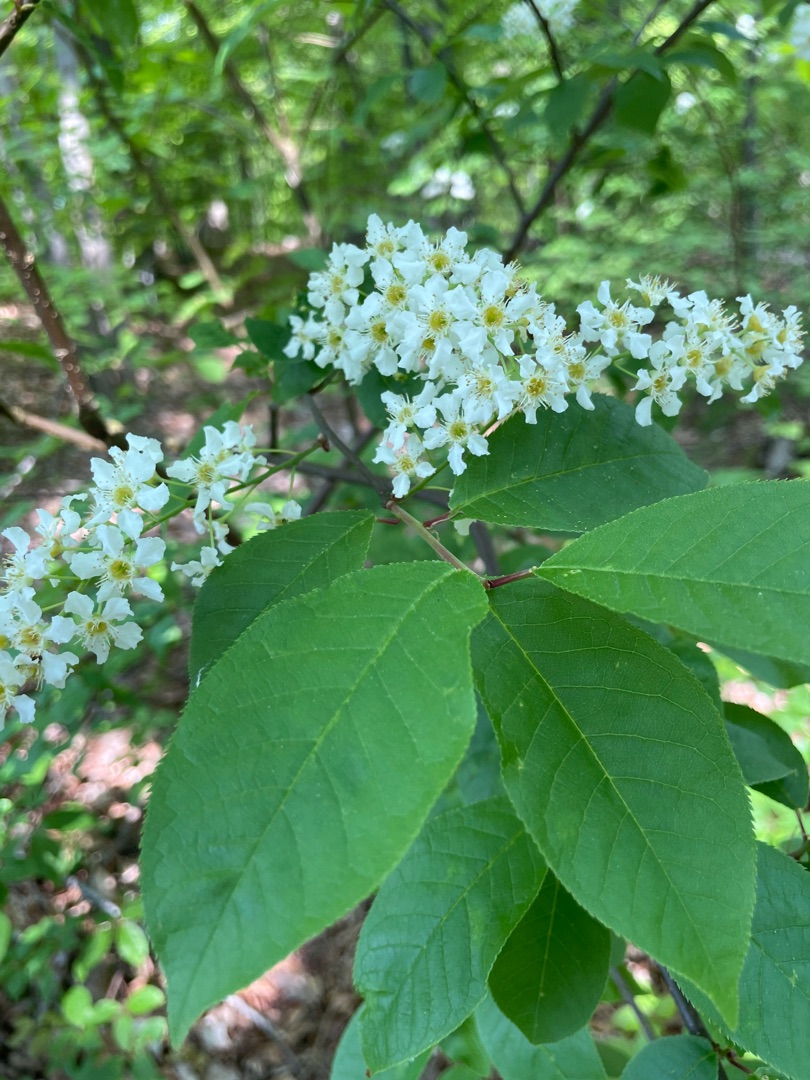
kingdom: Plantae
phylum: Tracheophyta
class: Magnoliopsida
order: Rosales
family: Rosaceae
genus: Prunus
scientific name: Prunus padus
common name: Almindelig hæg
